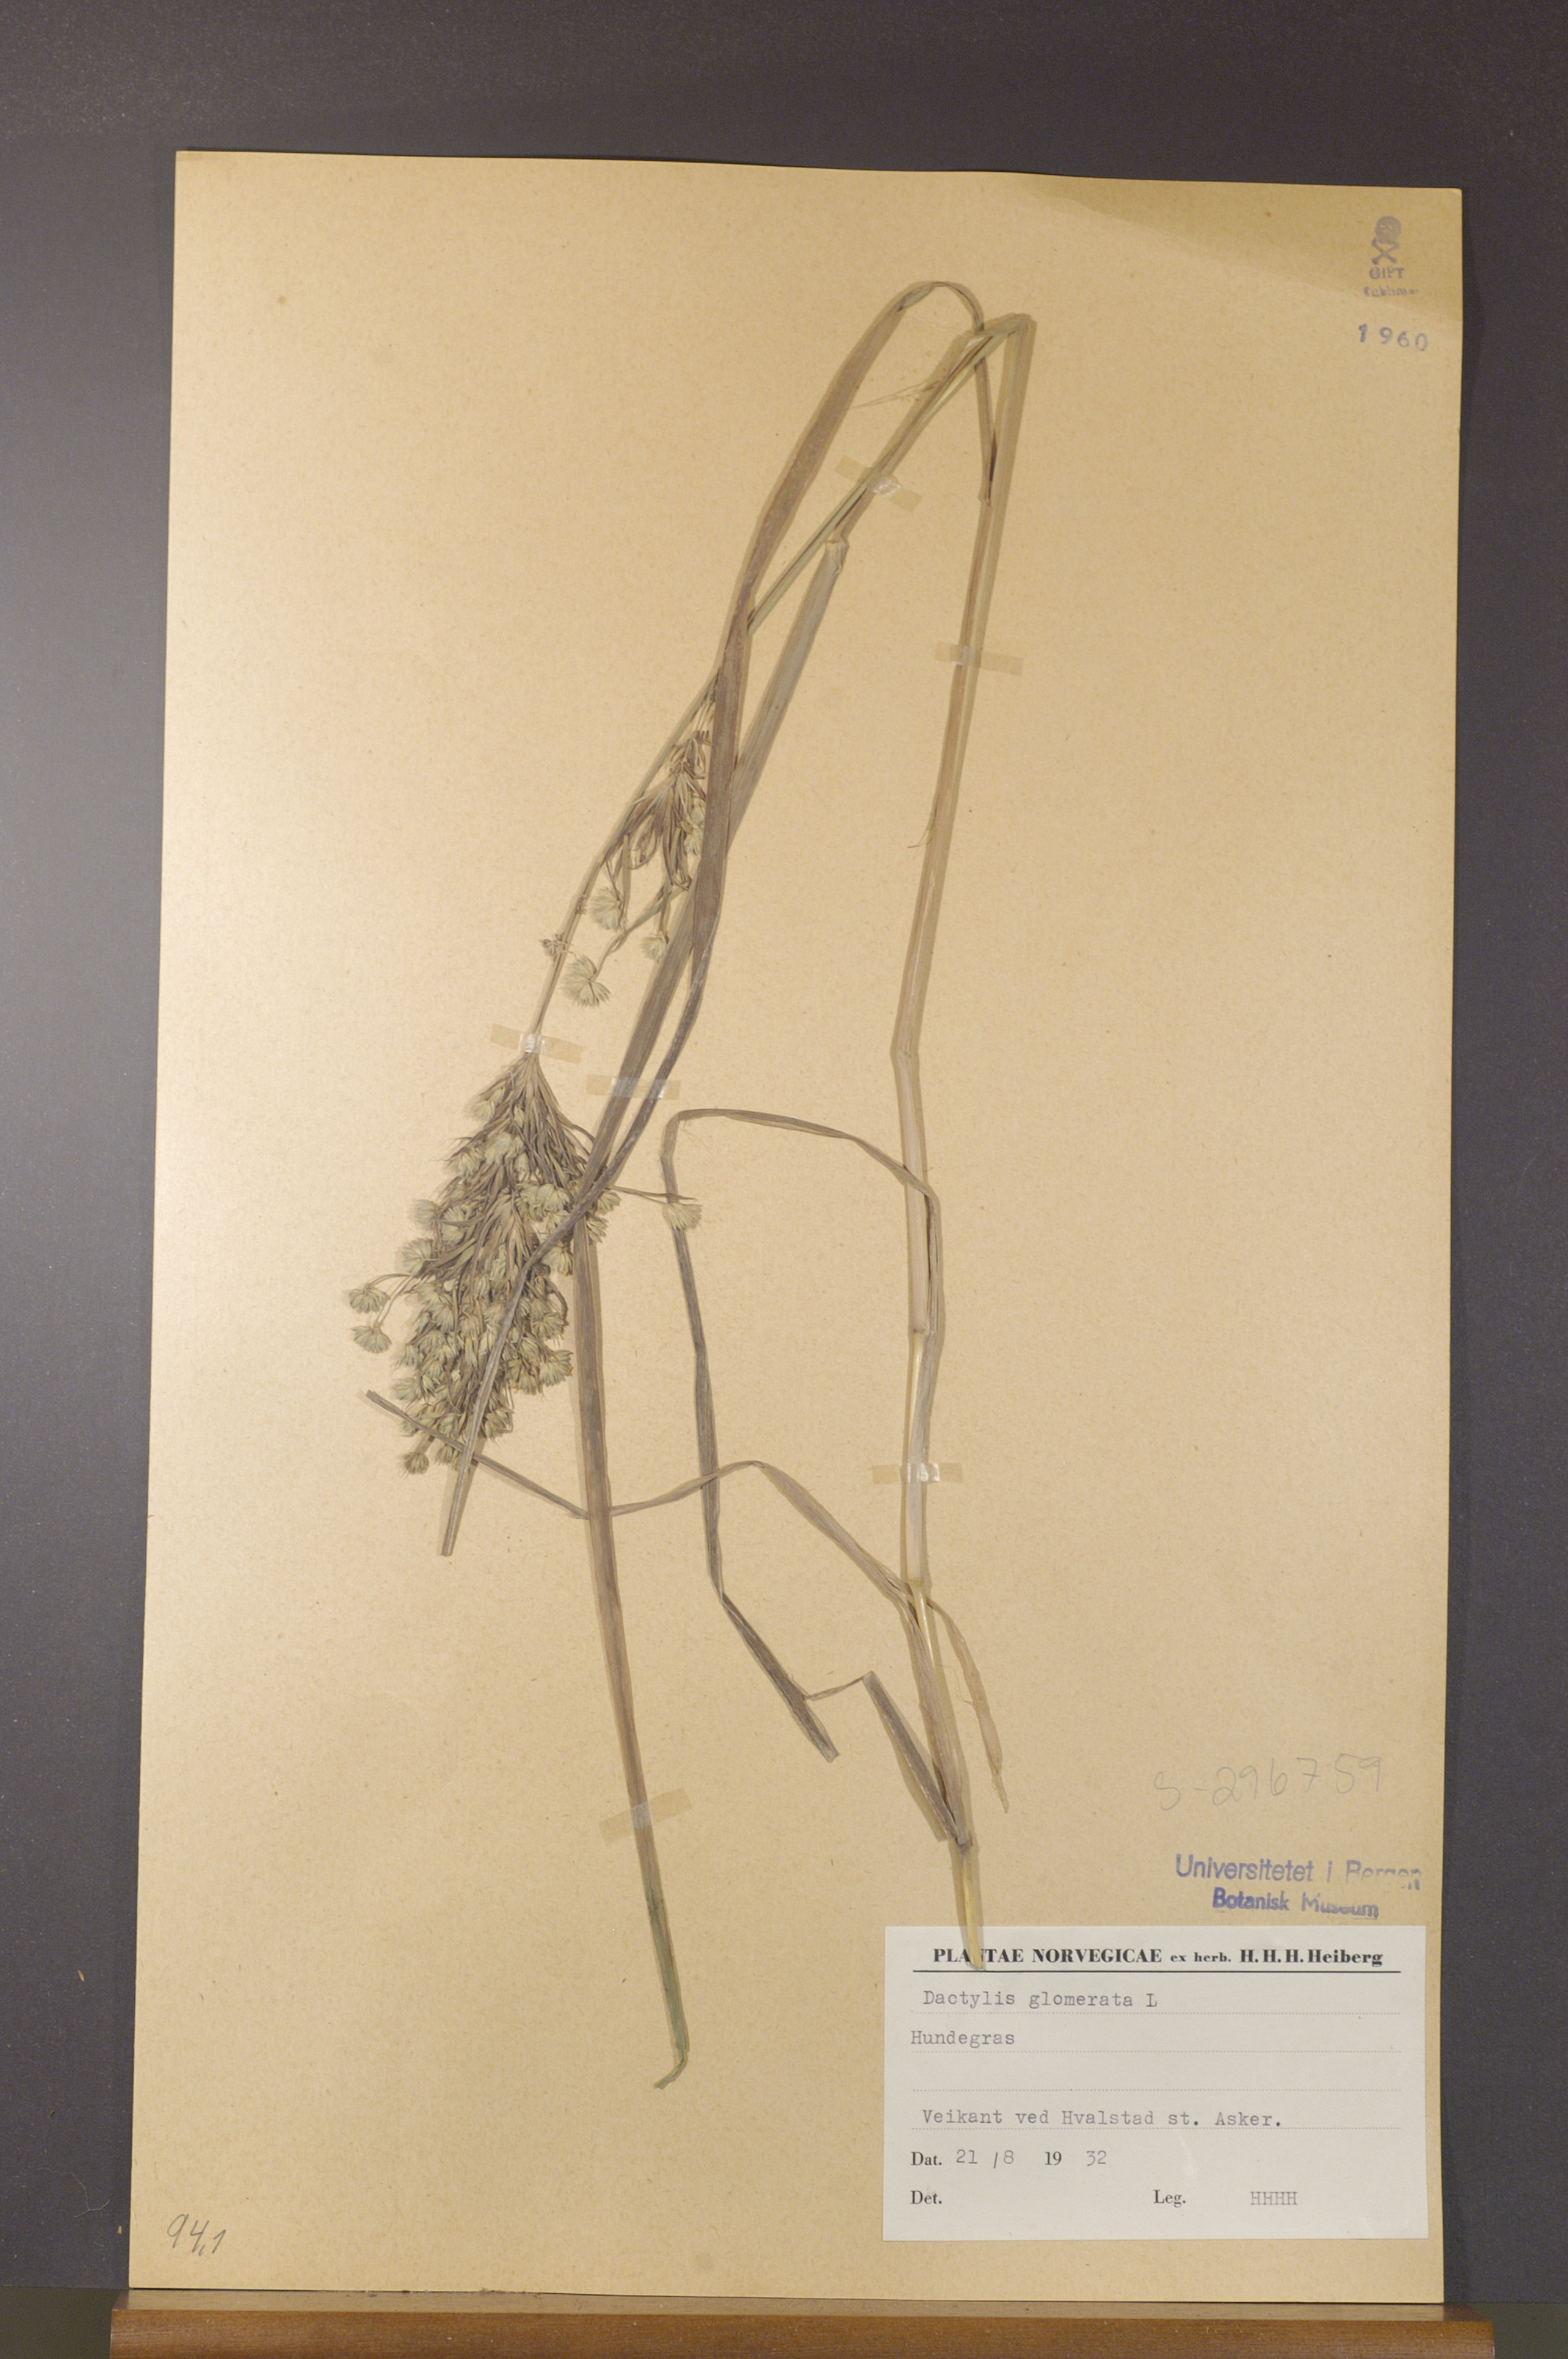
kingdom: Plantae
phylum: Tracheophyta
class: Liliopsida
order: Poales
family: Poaceae
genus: Dactylis
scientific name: Dactylis glomerata
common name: Orchardgrass
